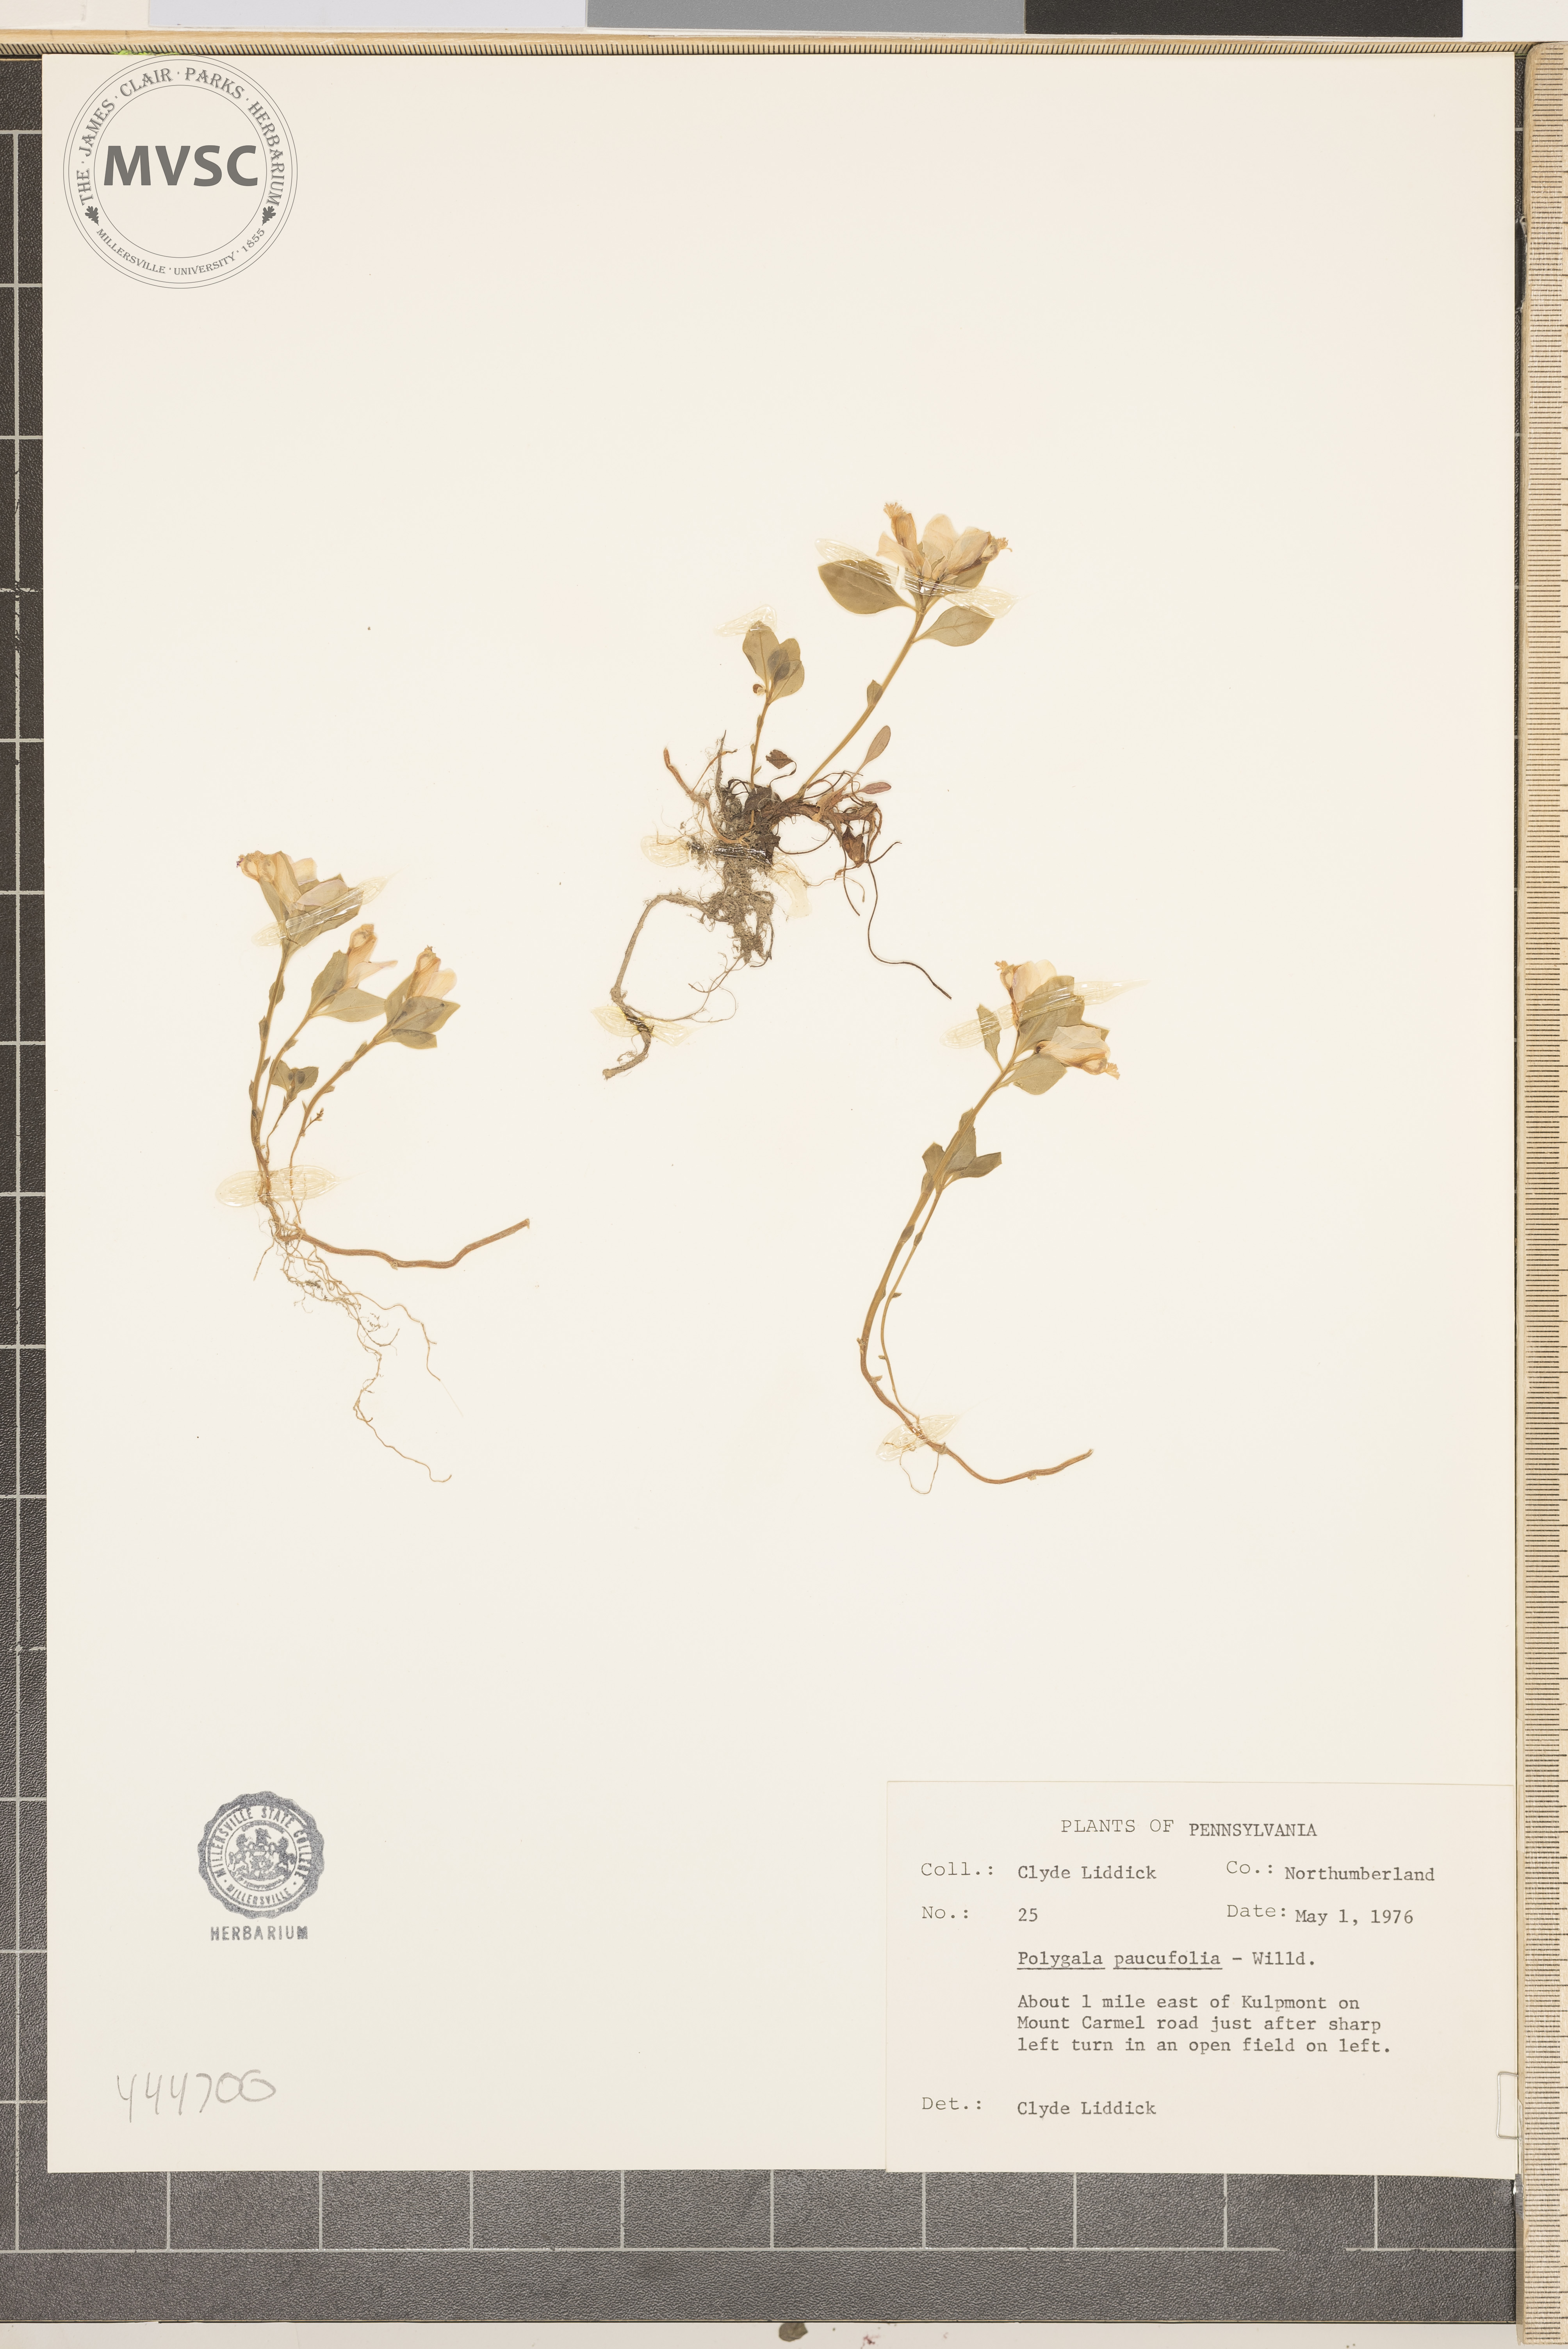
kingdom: Plantae
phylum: Tracheophyta
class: Magnoliopsida
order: Fabales
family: Polygalaceae
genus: Polygaloides
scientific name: Polygaloides paucifolia
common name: Bird-on-the-wing
